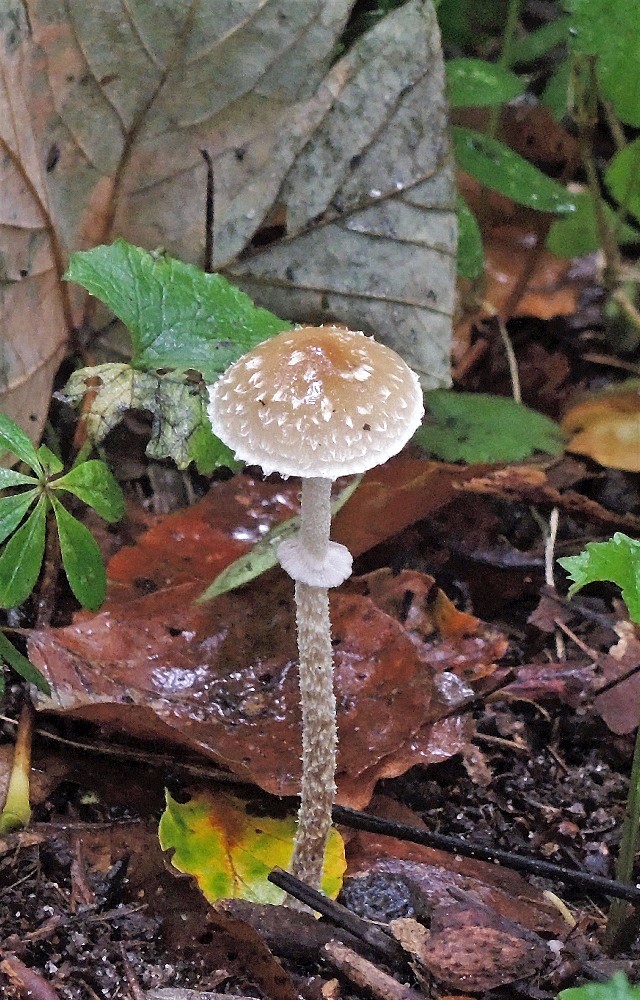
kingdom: Fungi
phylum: Basidiomycota
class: Agaricomycetes
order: Agaricales
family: Strophariaceae
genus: Leratiomyces
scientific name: Leratiomyces squamosus
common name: skællet bredblad
